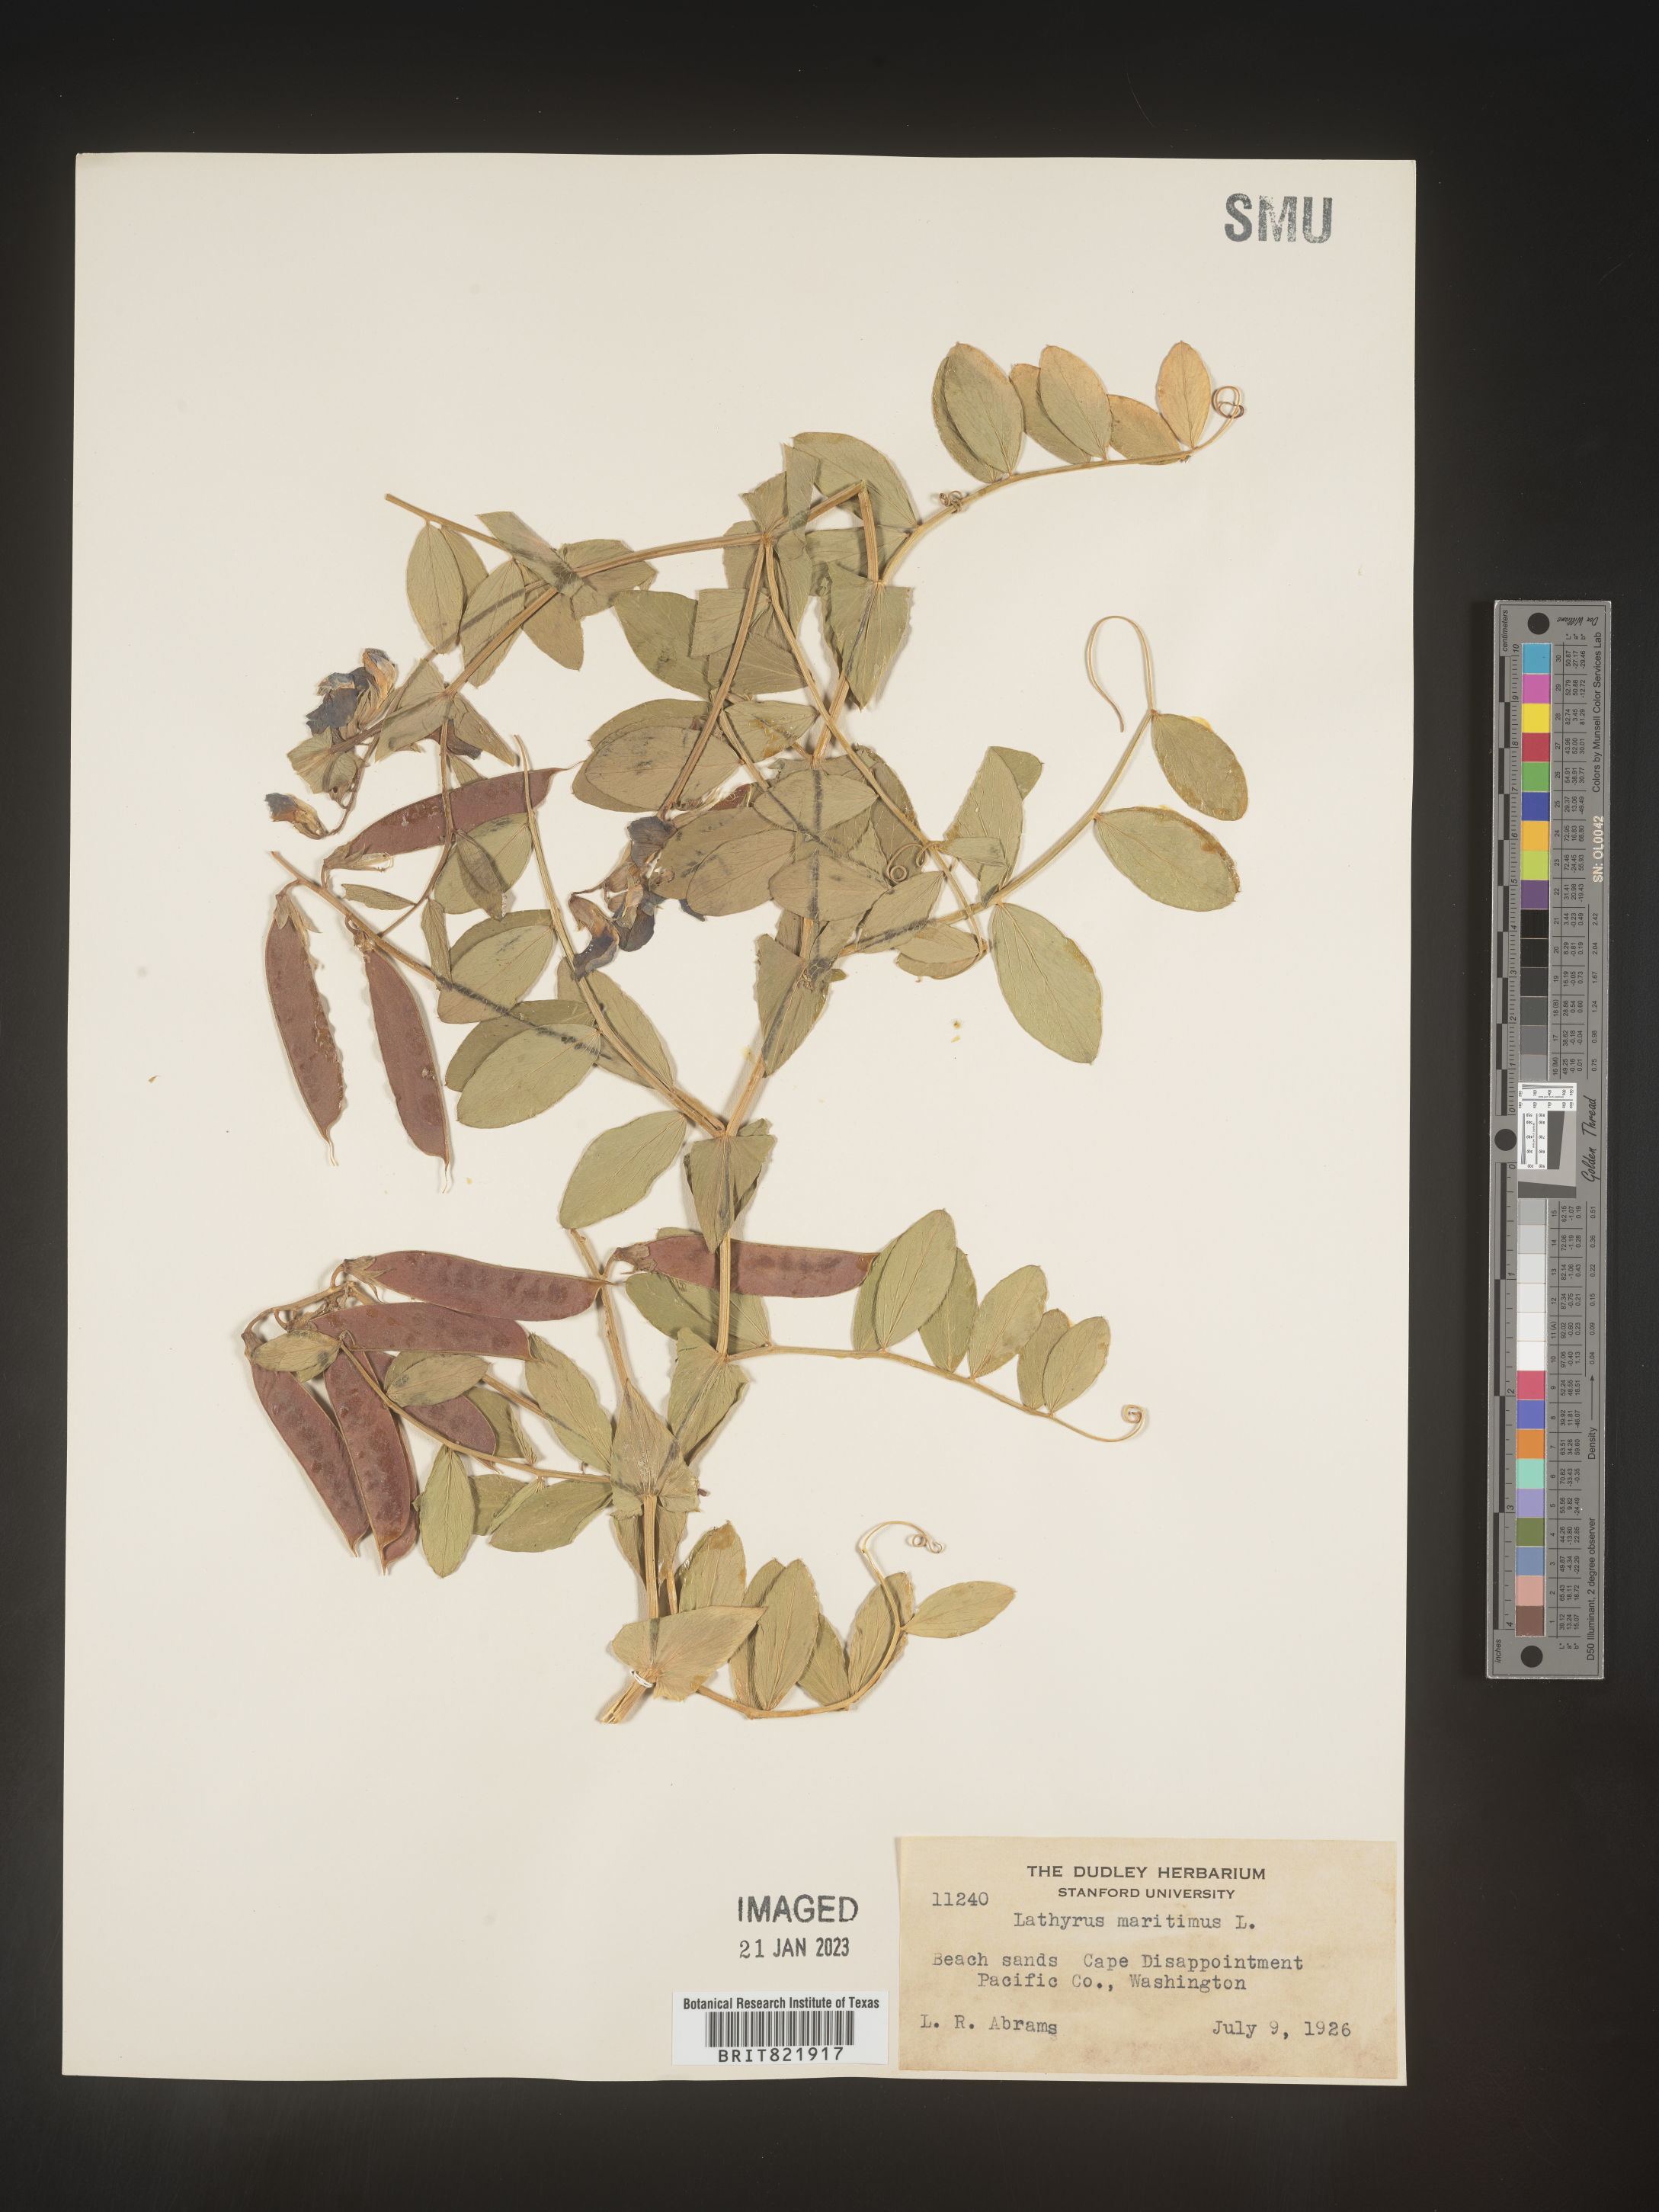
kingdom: Plantae
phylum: Tracheophyta
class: Magnoliopsida
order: Fabales
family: Fabaceae
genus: Lathyrus
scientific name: Lathyrus
